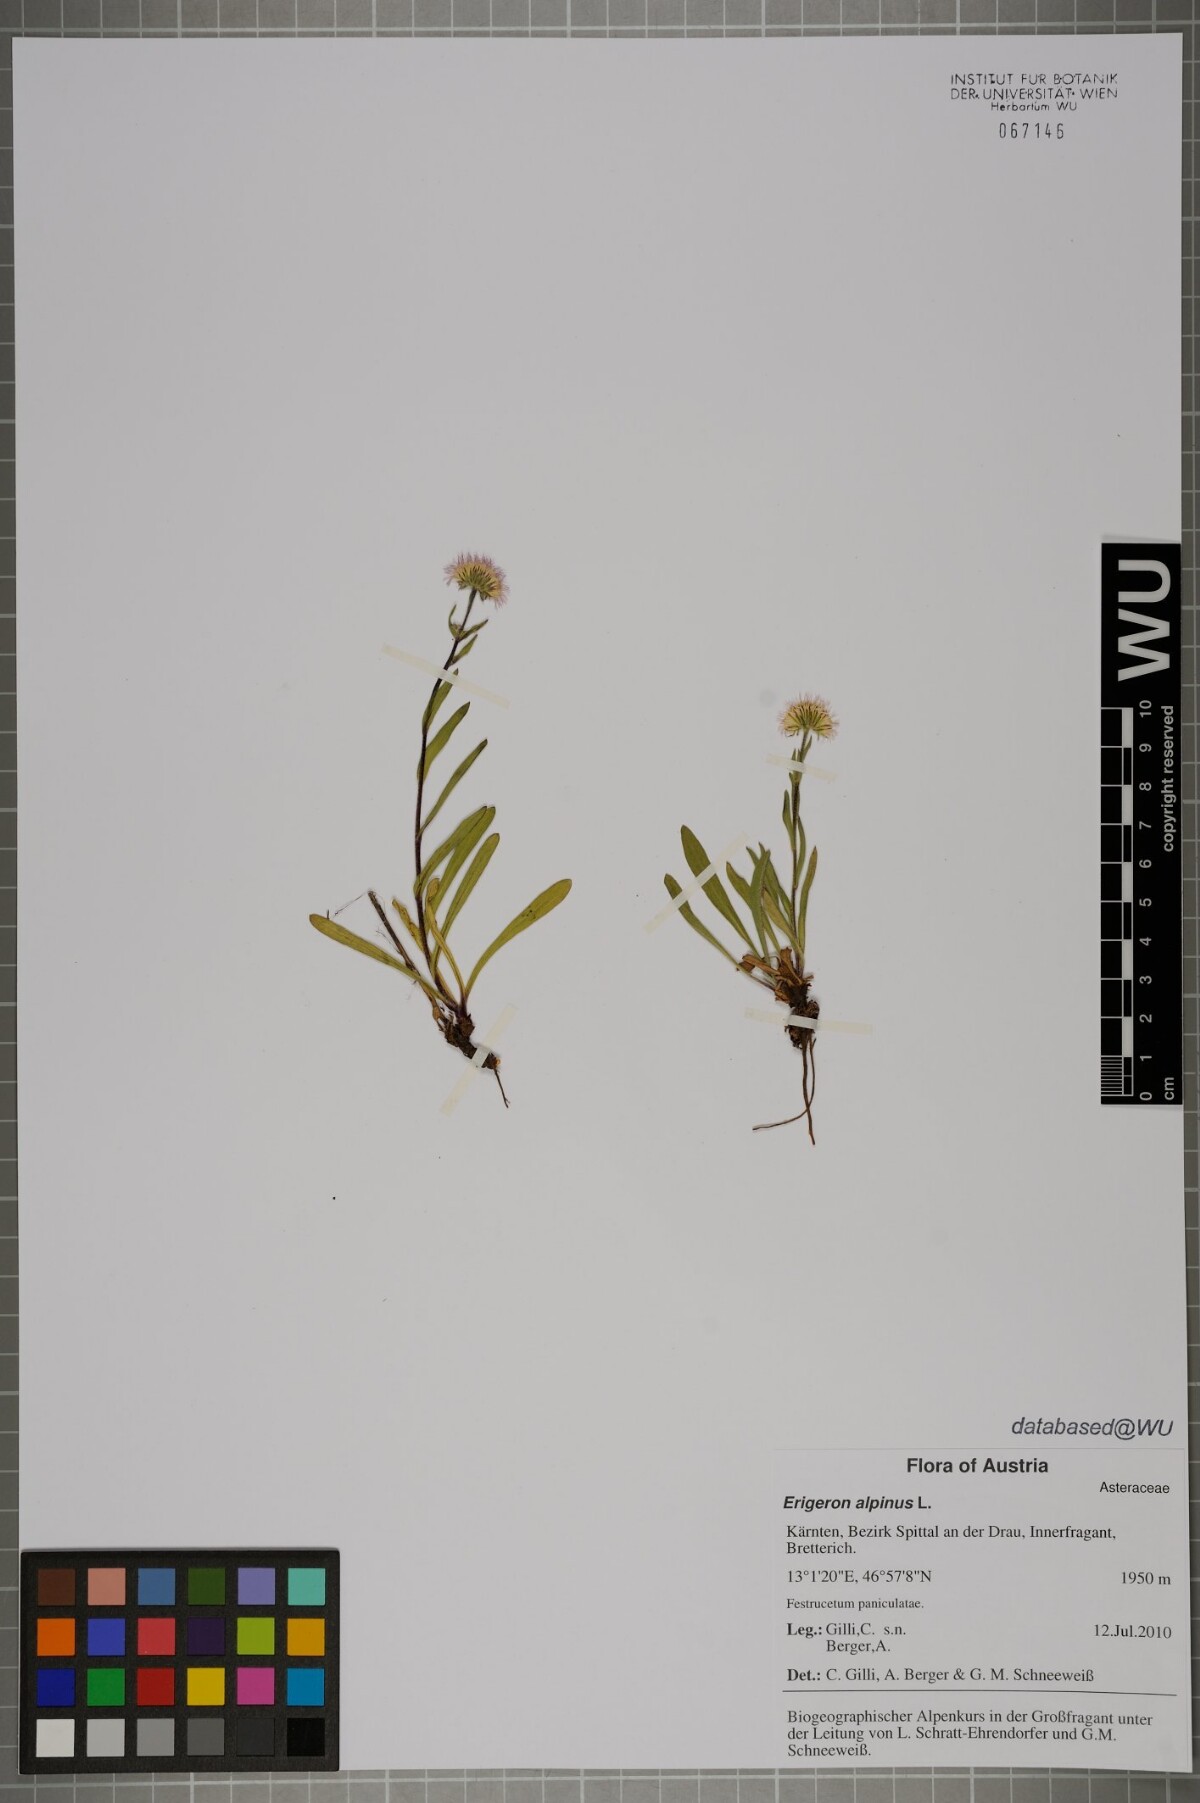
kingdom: Plantae
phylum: Tracheophyta
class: Magnoliopsida
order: Asterales
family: Asteraceae
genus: Erigeron
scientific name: Erigeron alpinus
